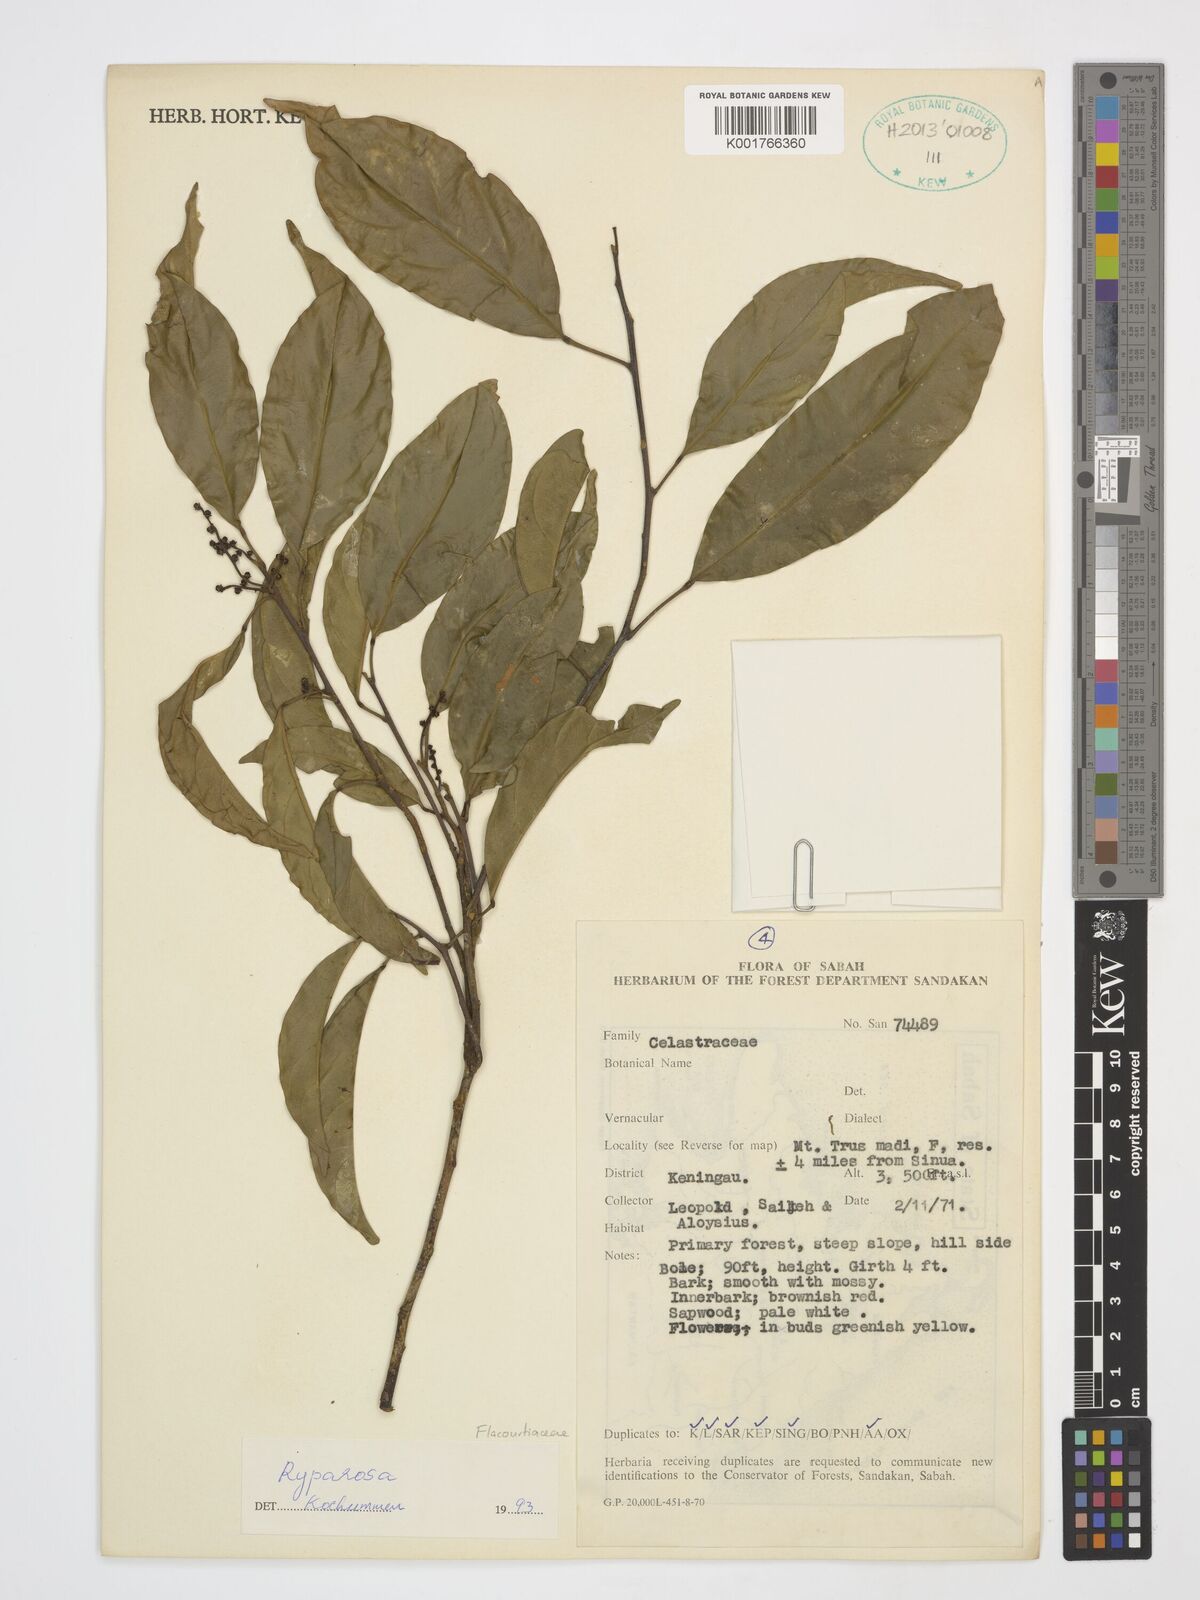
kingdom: Plantae
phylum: Tracheophyta
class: Magnoliopsida
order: Malpighiales
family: Achariaceae
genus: Ryparosa
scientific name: Ryparosa
